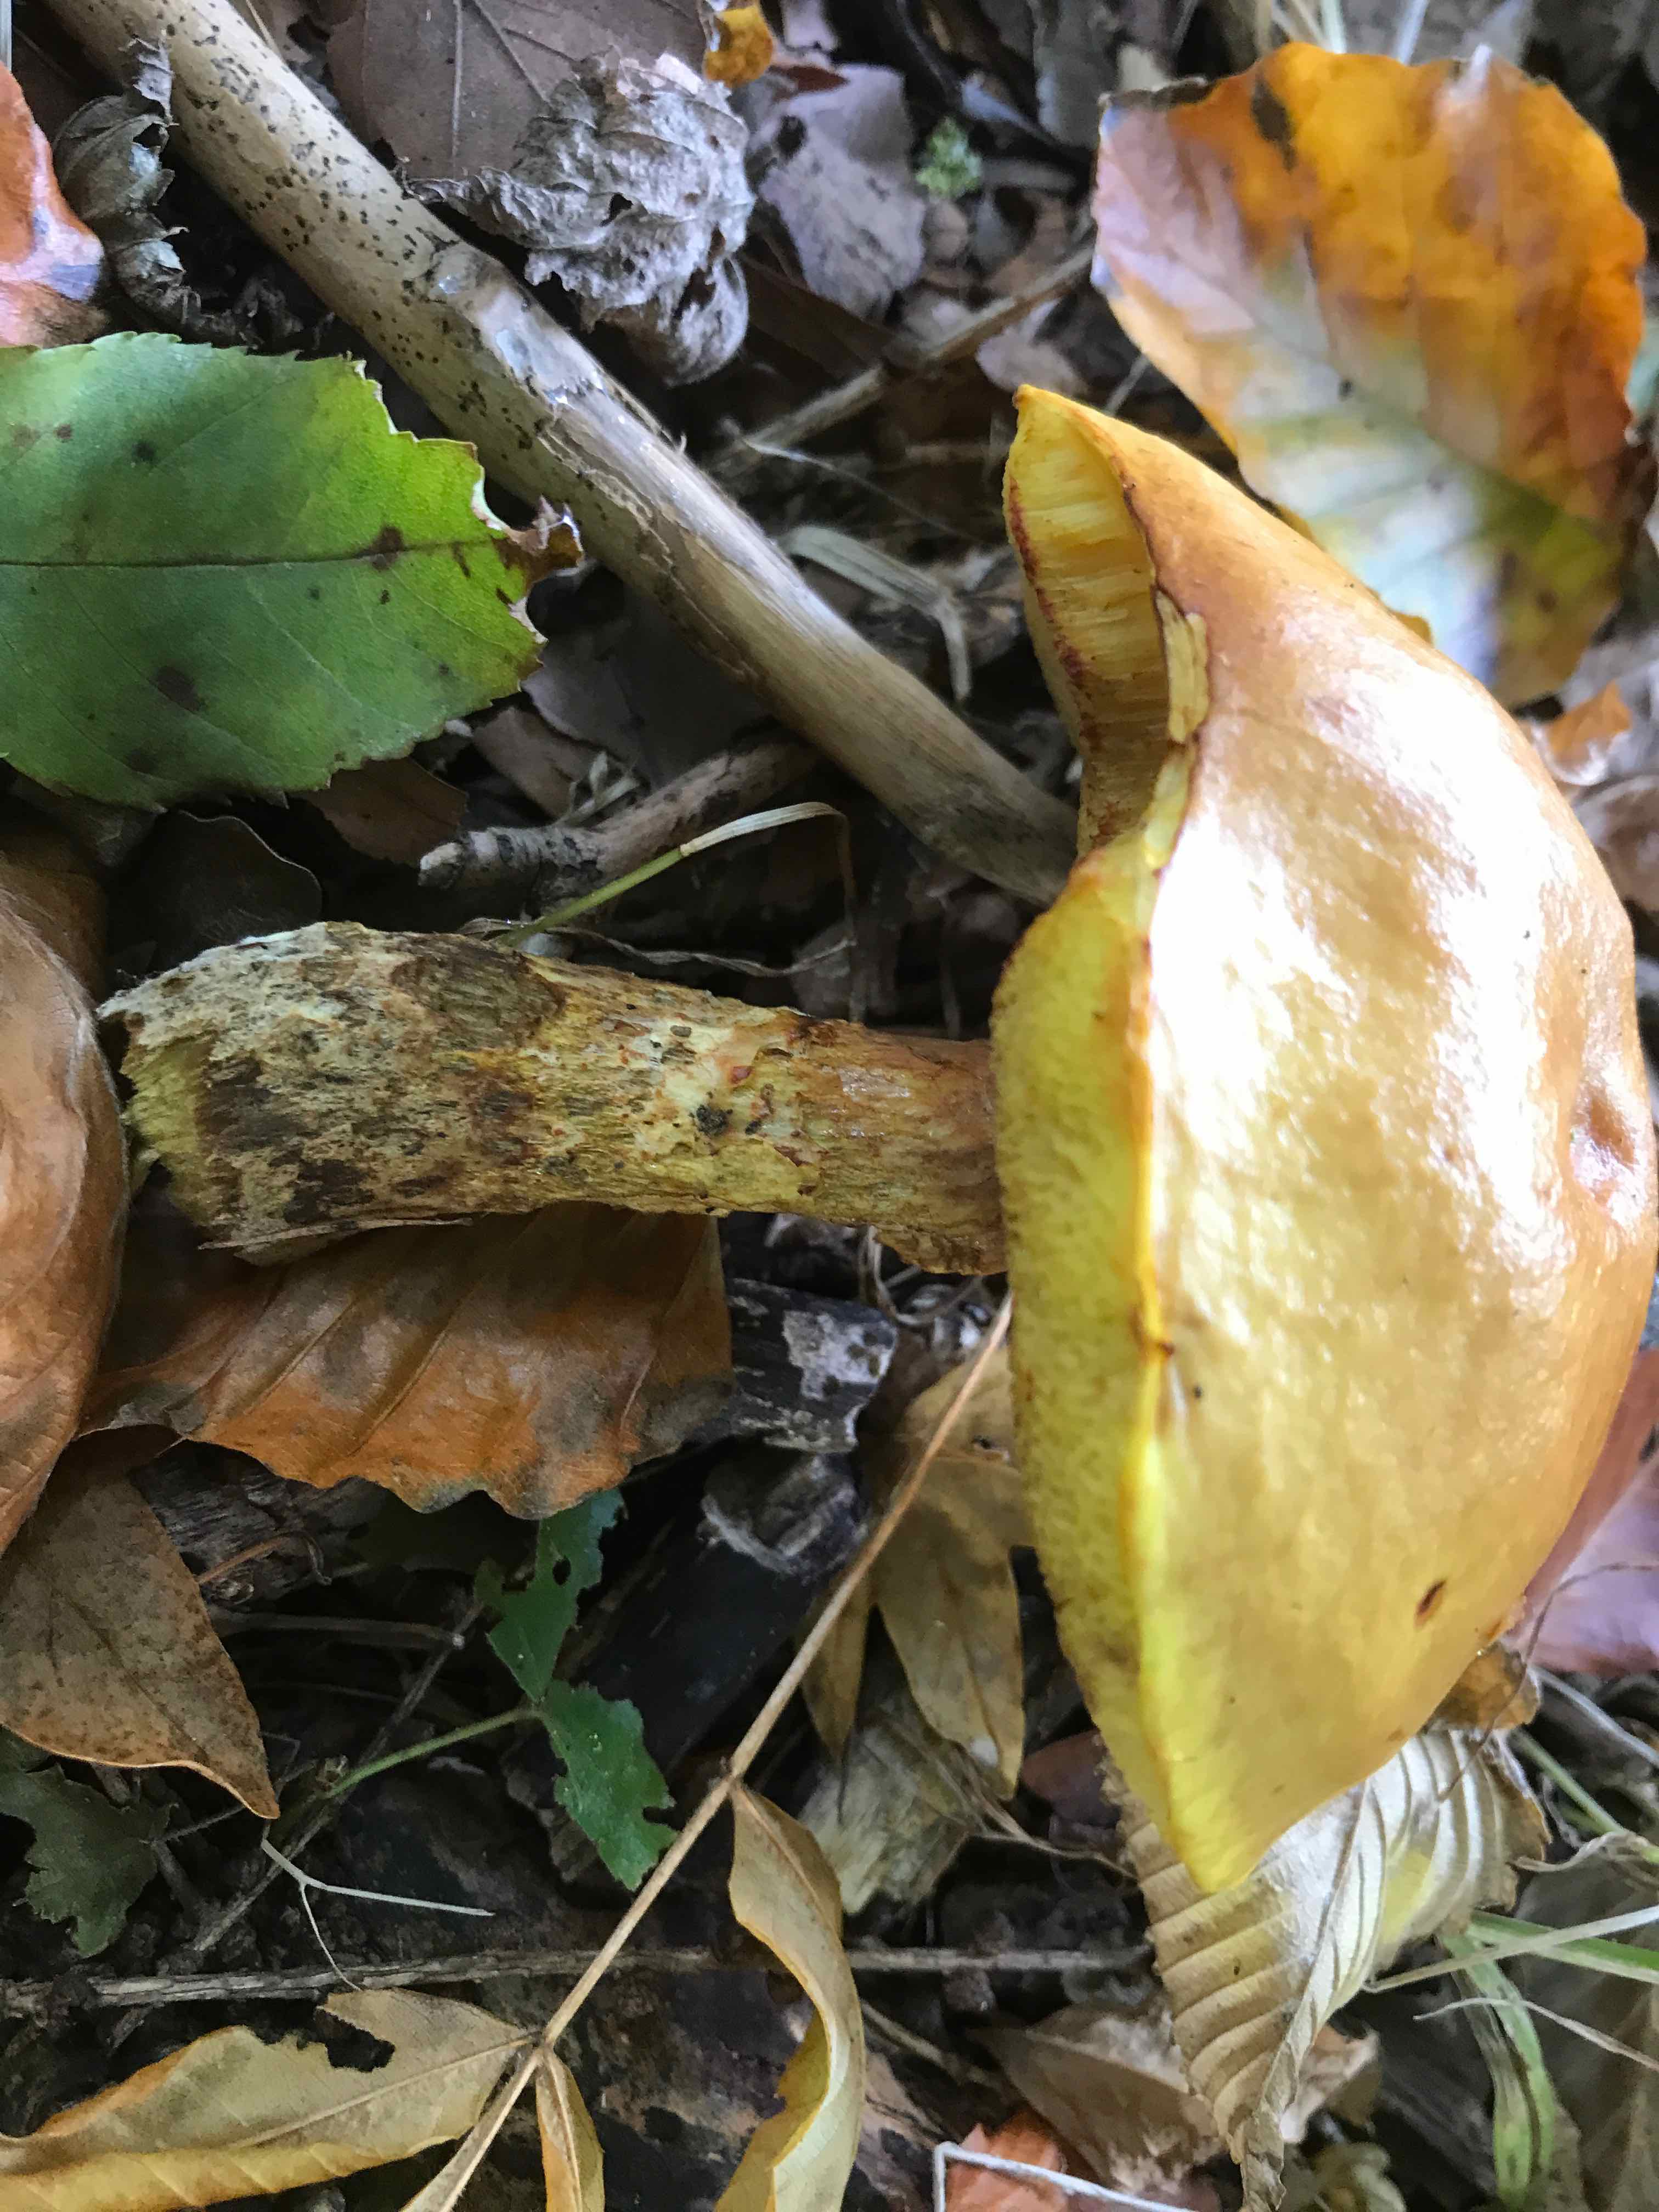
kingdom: Fungi
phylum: Basidiomycota
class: Agaricomycetes
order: Boletales
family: Suillaceae
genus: Suillus
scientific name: Suillus grevillei
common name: lærke-slimrørhat
